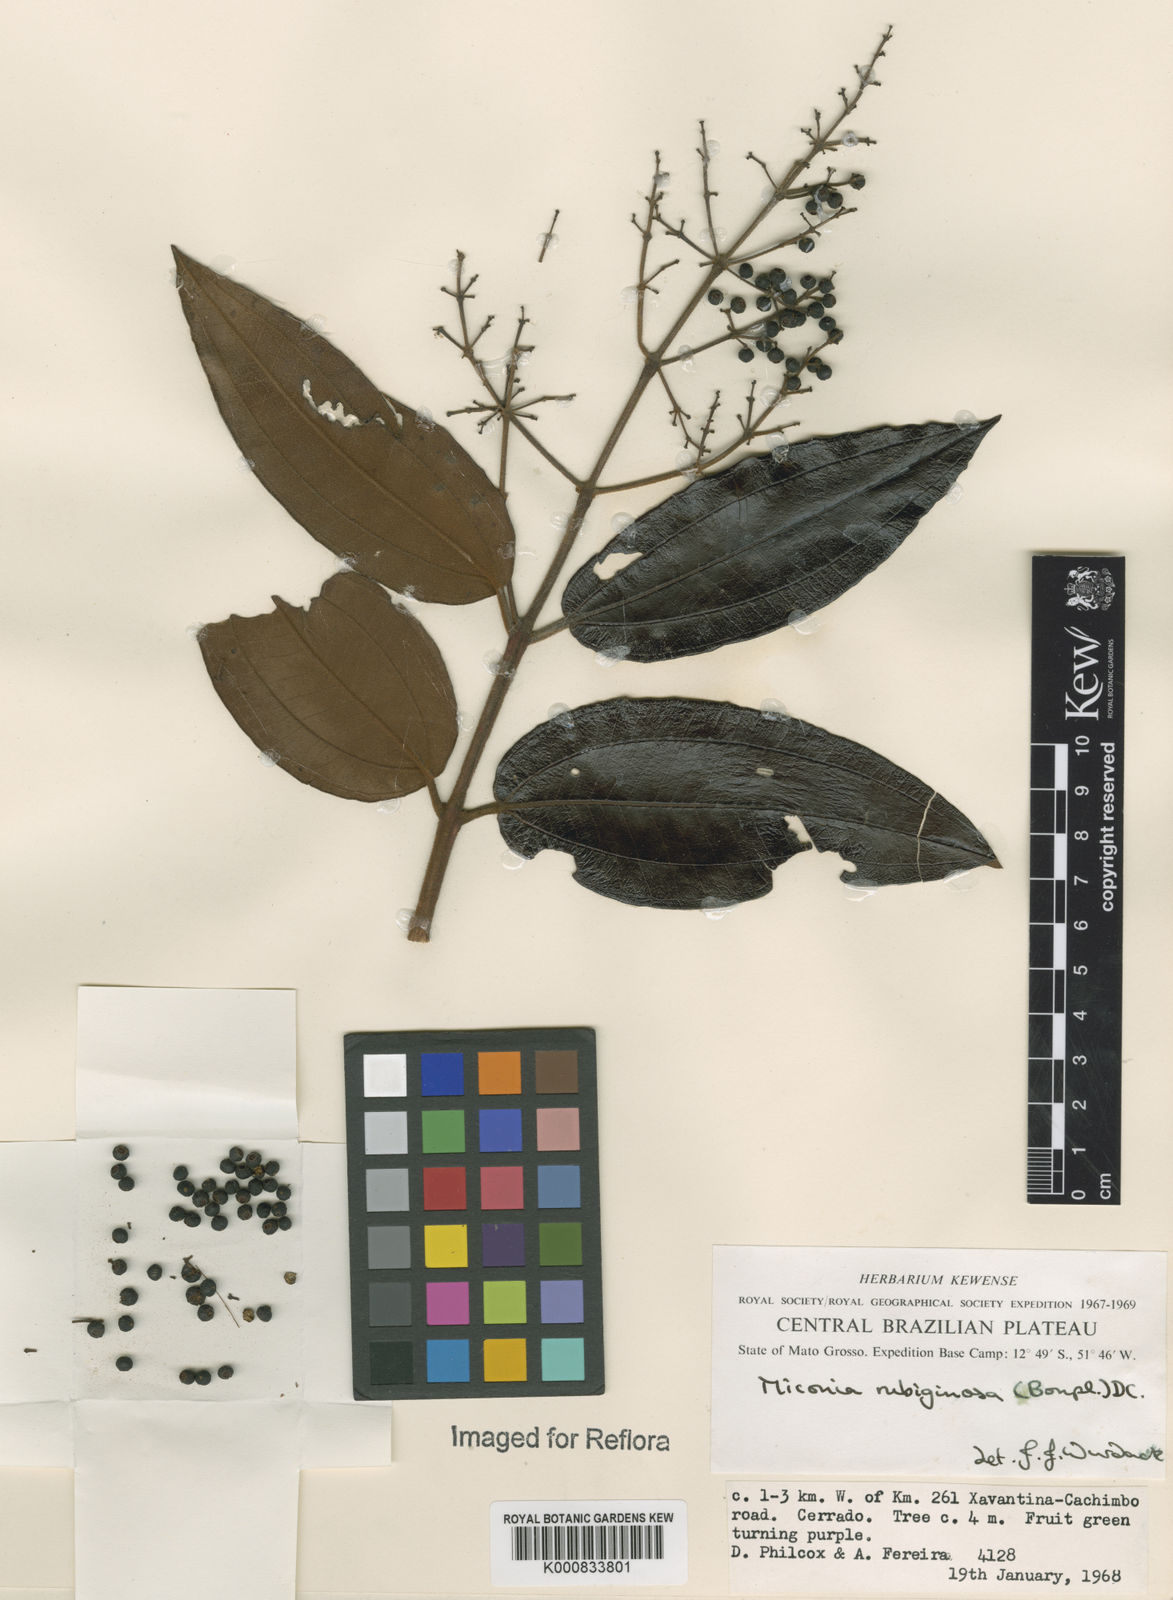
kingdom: Plantae
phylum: Tracheophyta
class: Magnoliopsida
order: Myrtales
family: Melastomataceae
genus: Miconia
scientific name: Miconia rubiginosa
